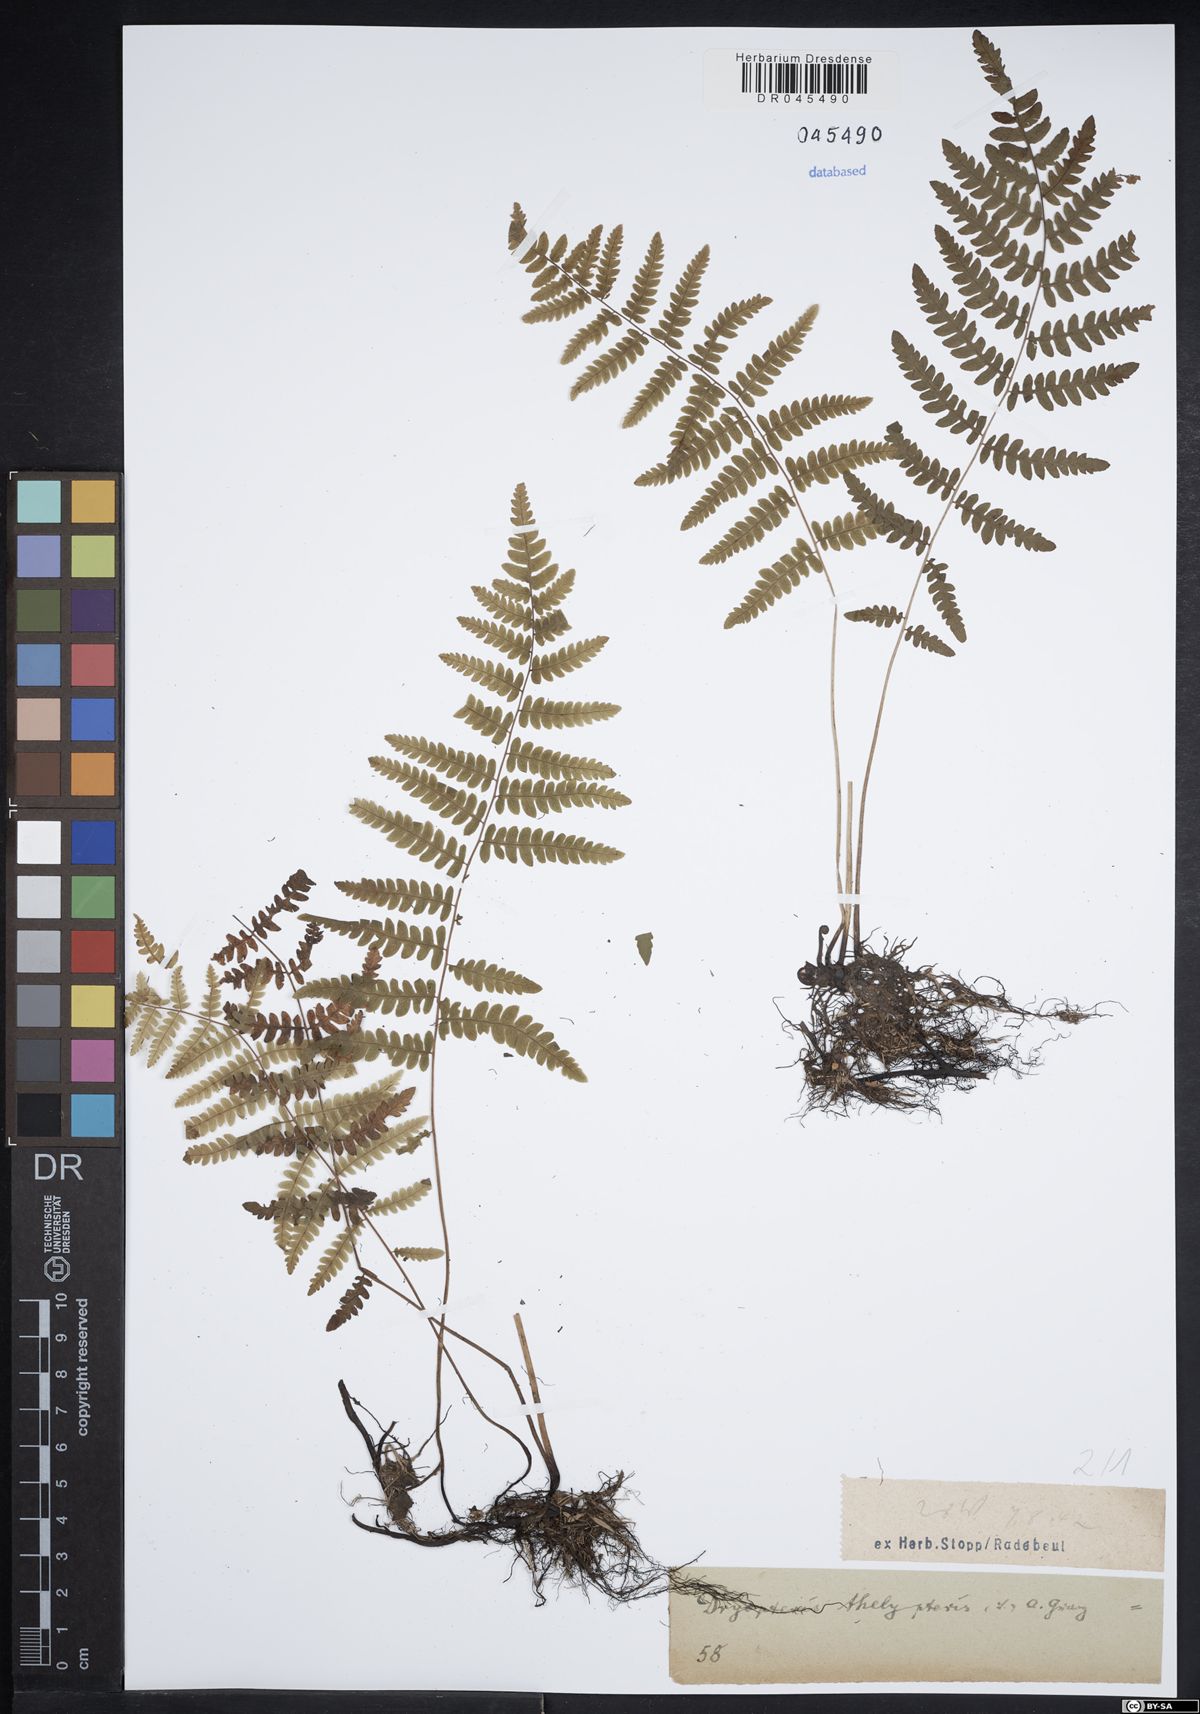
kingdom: Plantae
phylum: Tracheophyta
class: Polypodiopsida
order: Polypodiales
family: Thelypteridaceae
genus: Thelypteris
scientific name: Thelypteris palustris
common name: Marsh fern
